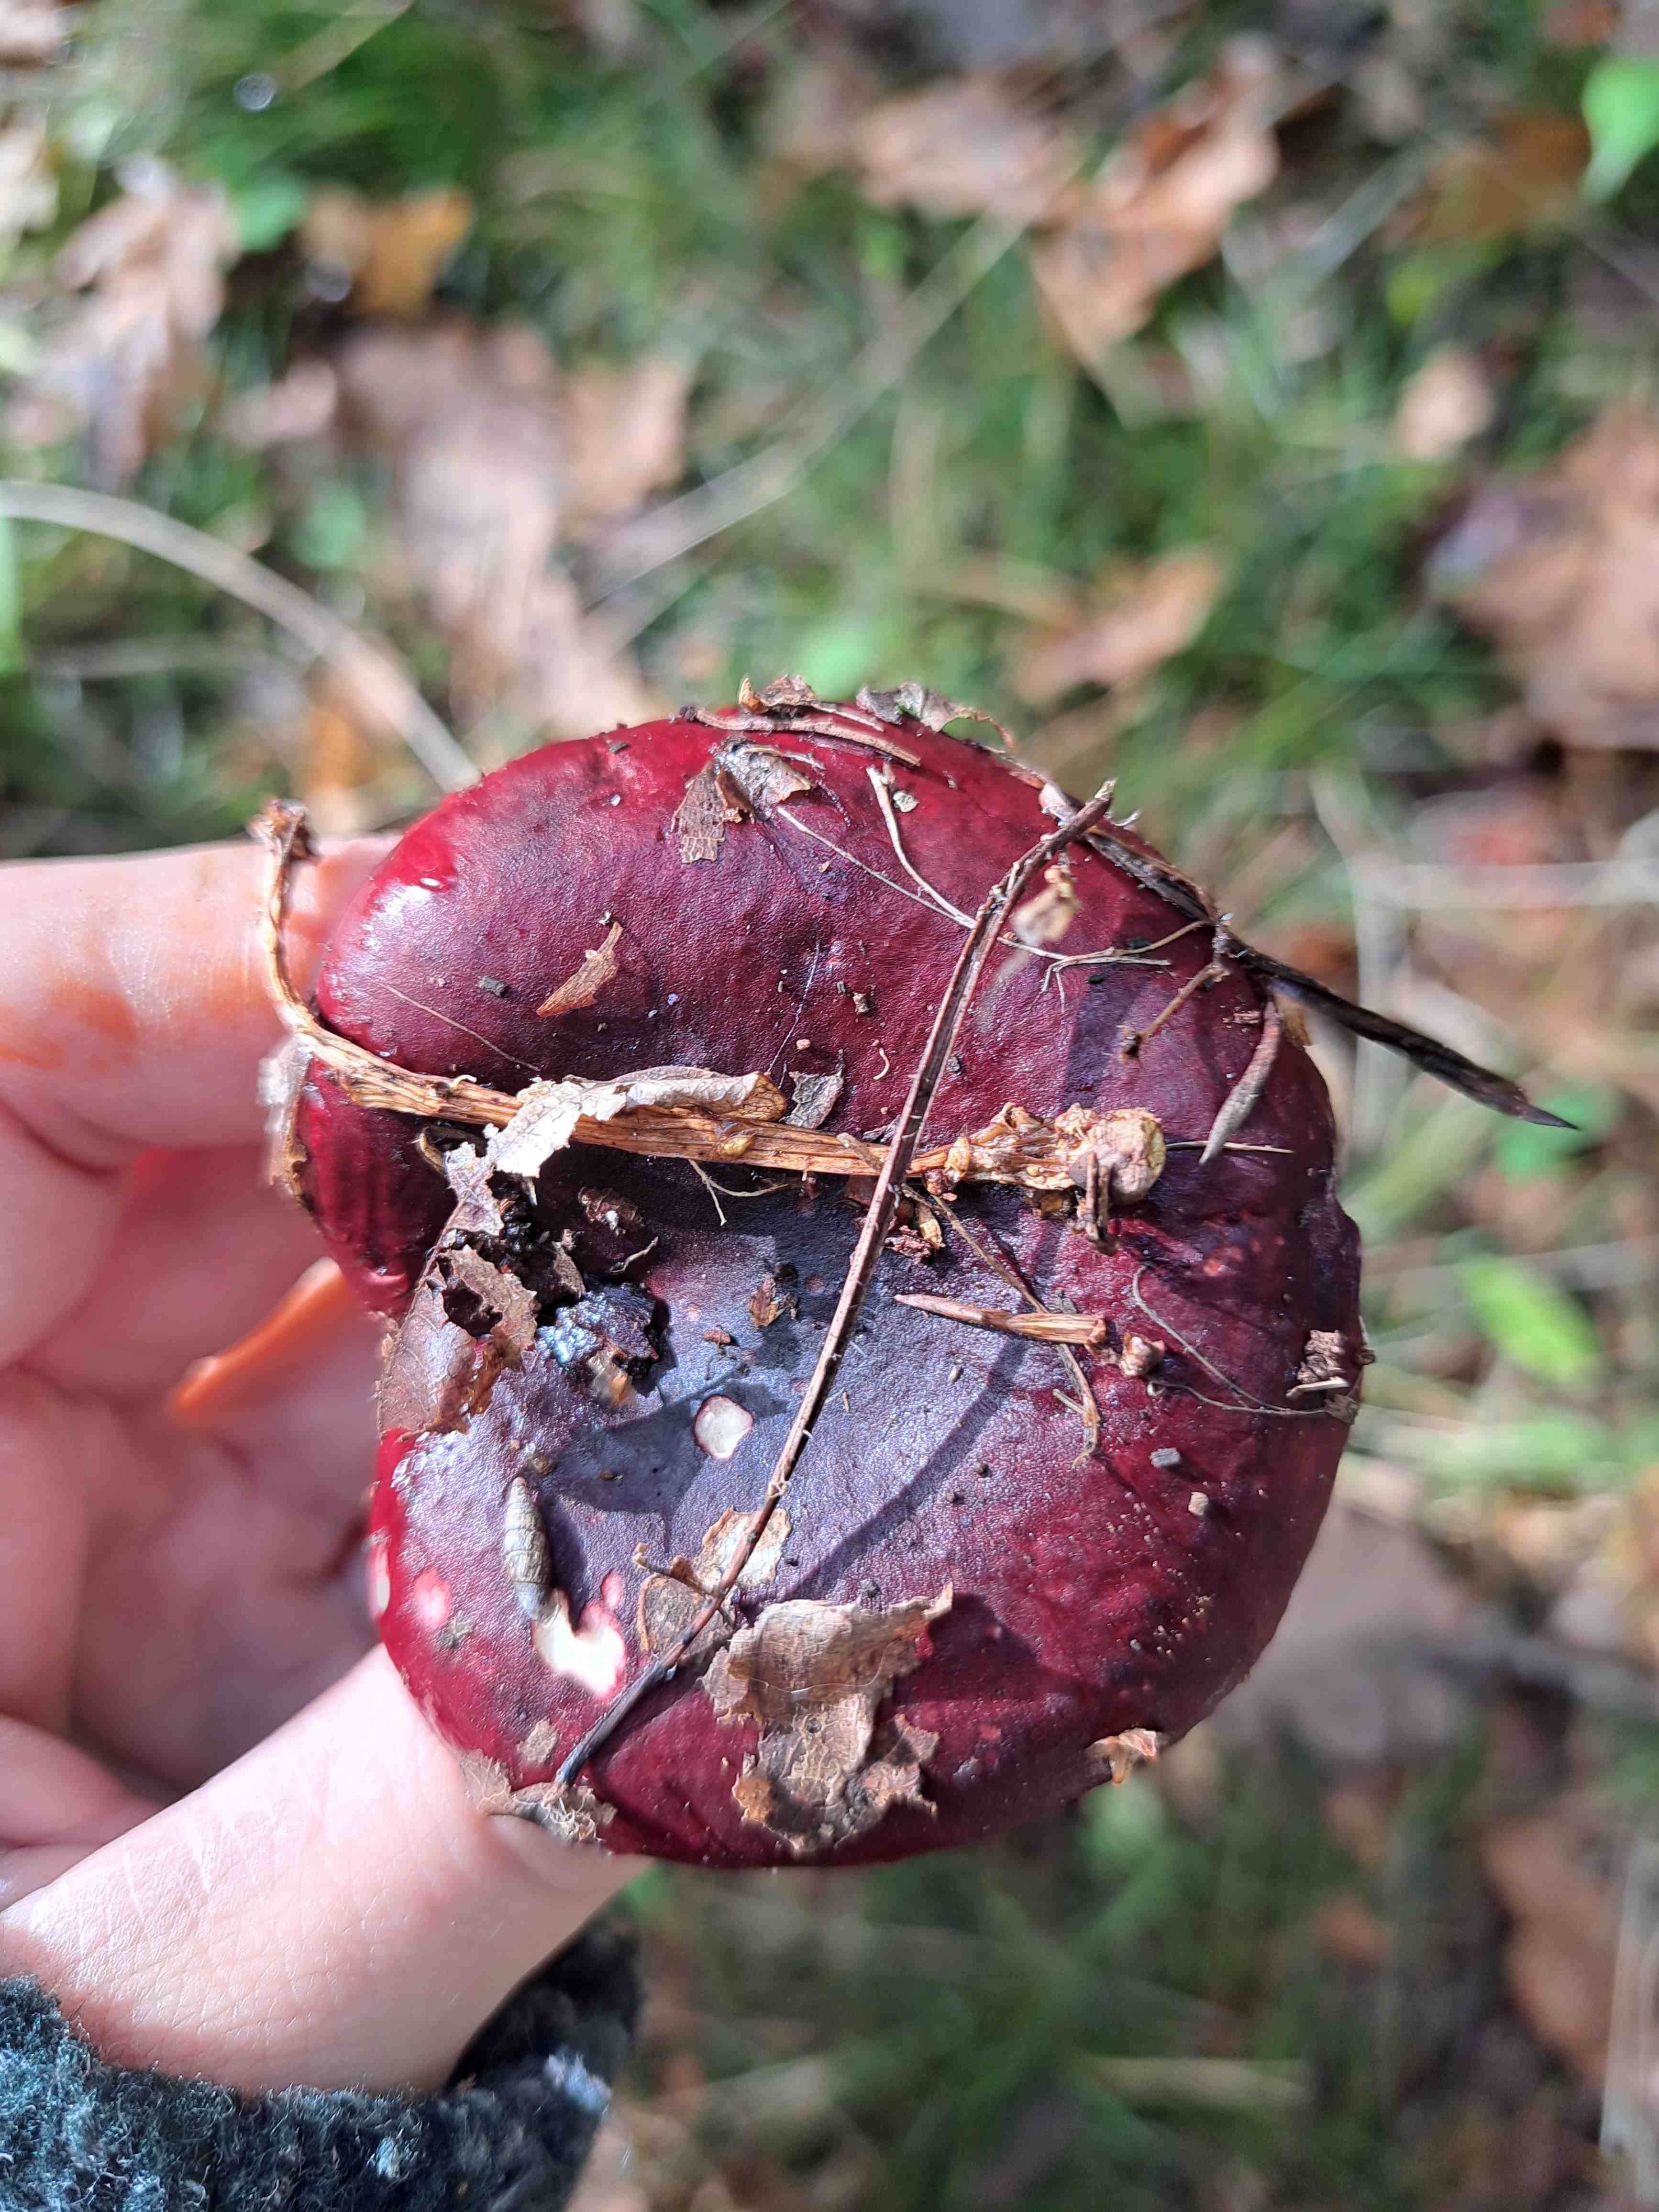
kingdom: Fungi
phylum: Basidiomycota
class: Agaricomycetes
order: Russulales
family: Russulaceae
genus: Russula
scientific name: Russula xerampelina
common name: hummer-skørhat
